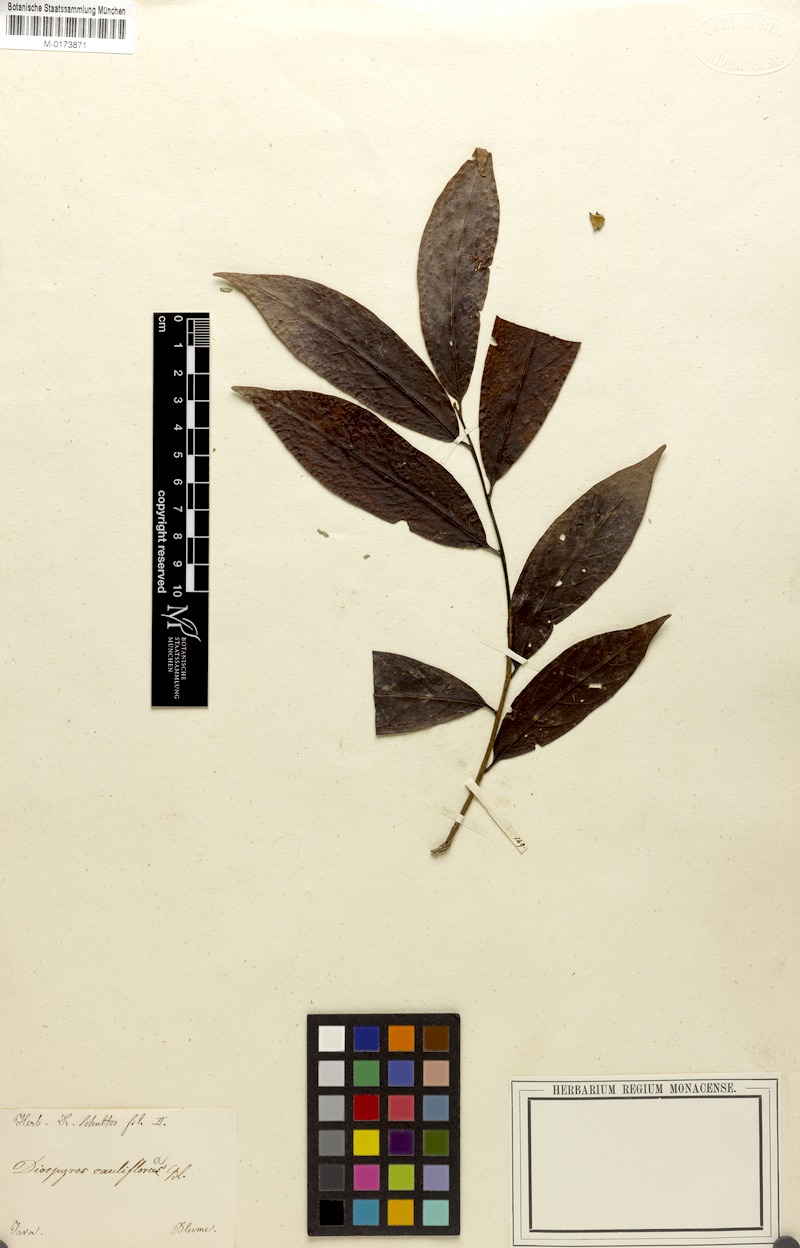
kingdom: Plantae
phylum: Tracheophyta
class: Magnoliopsida
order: Ericales
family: Ebenaceae
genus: Diospyros
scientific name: Diospyros cauliflora
